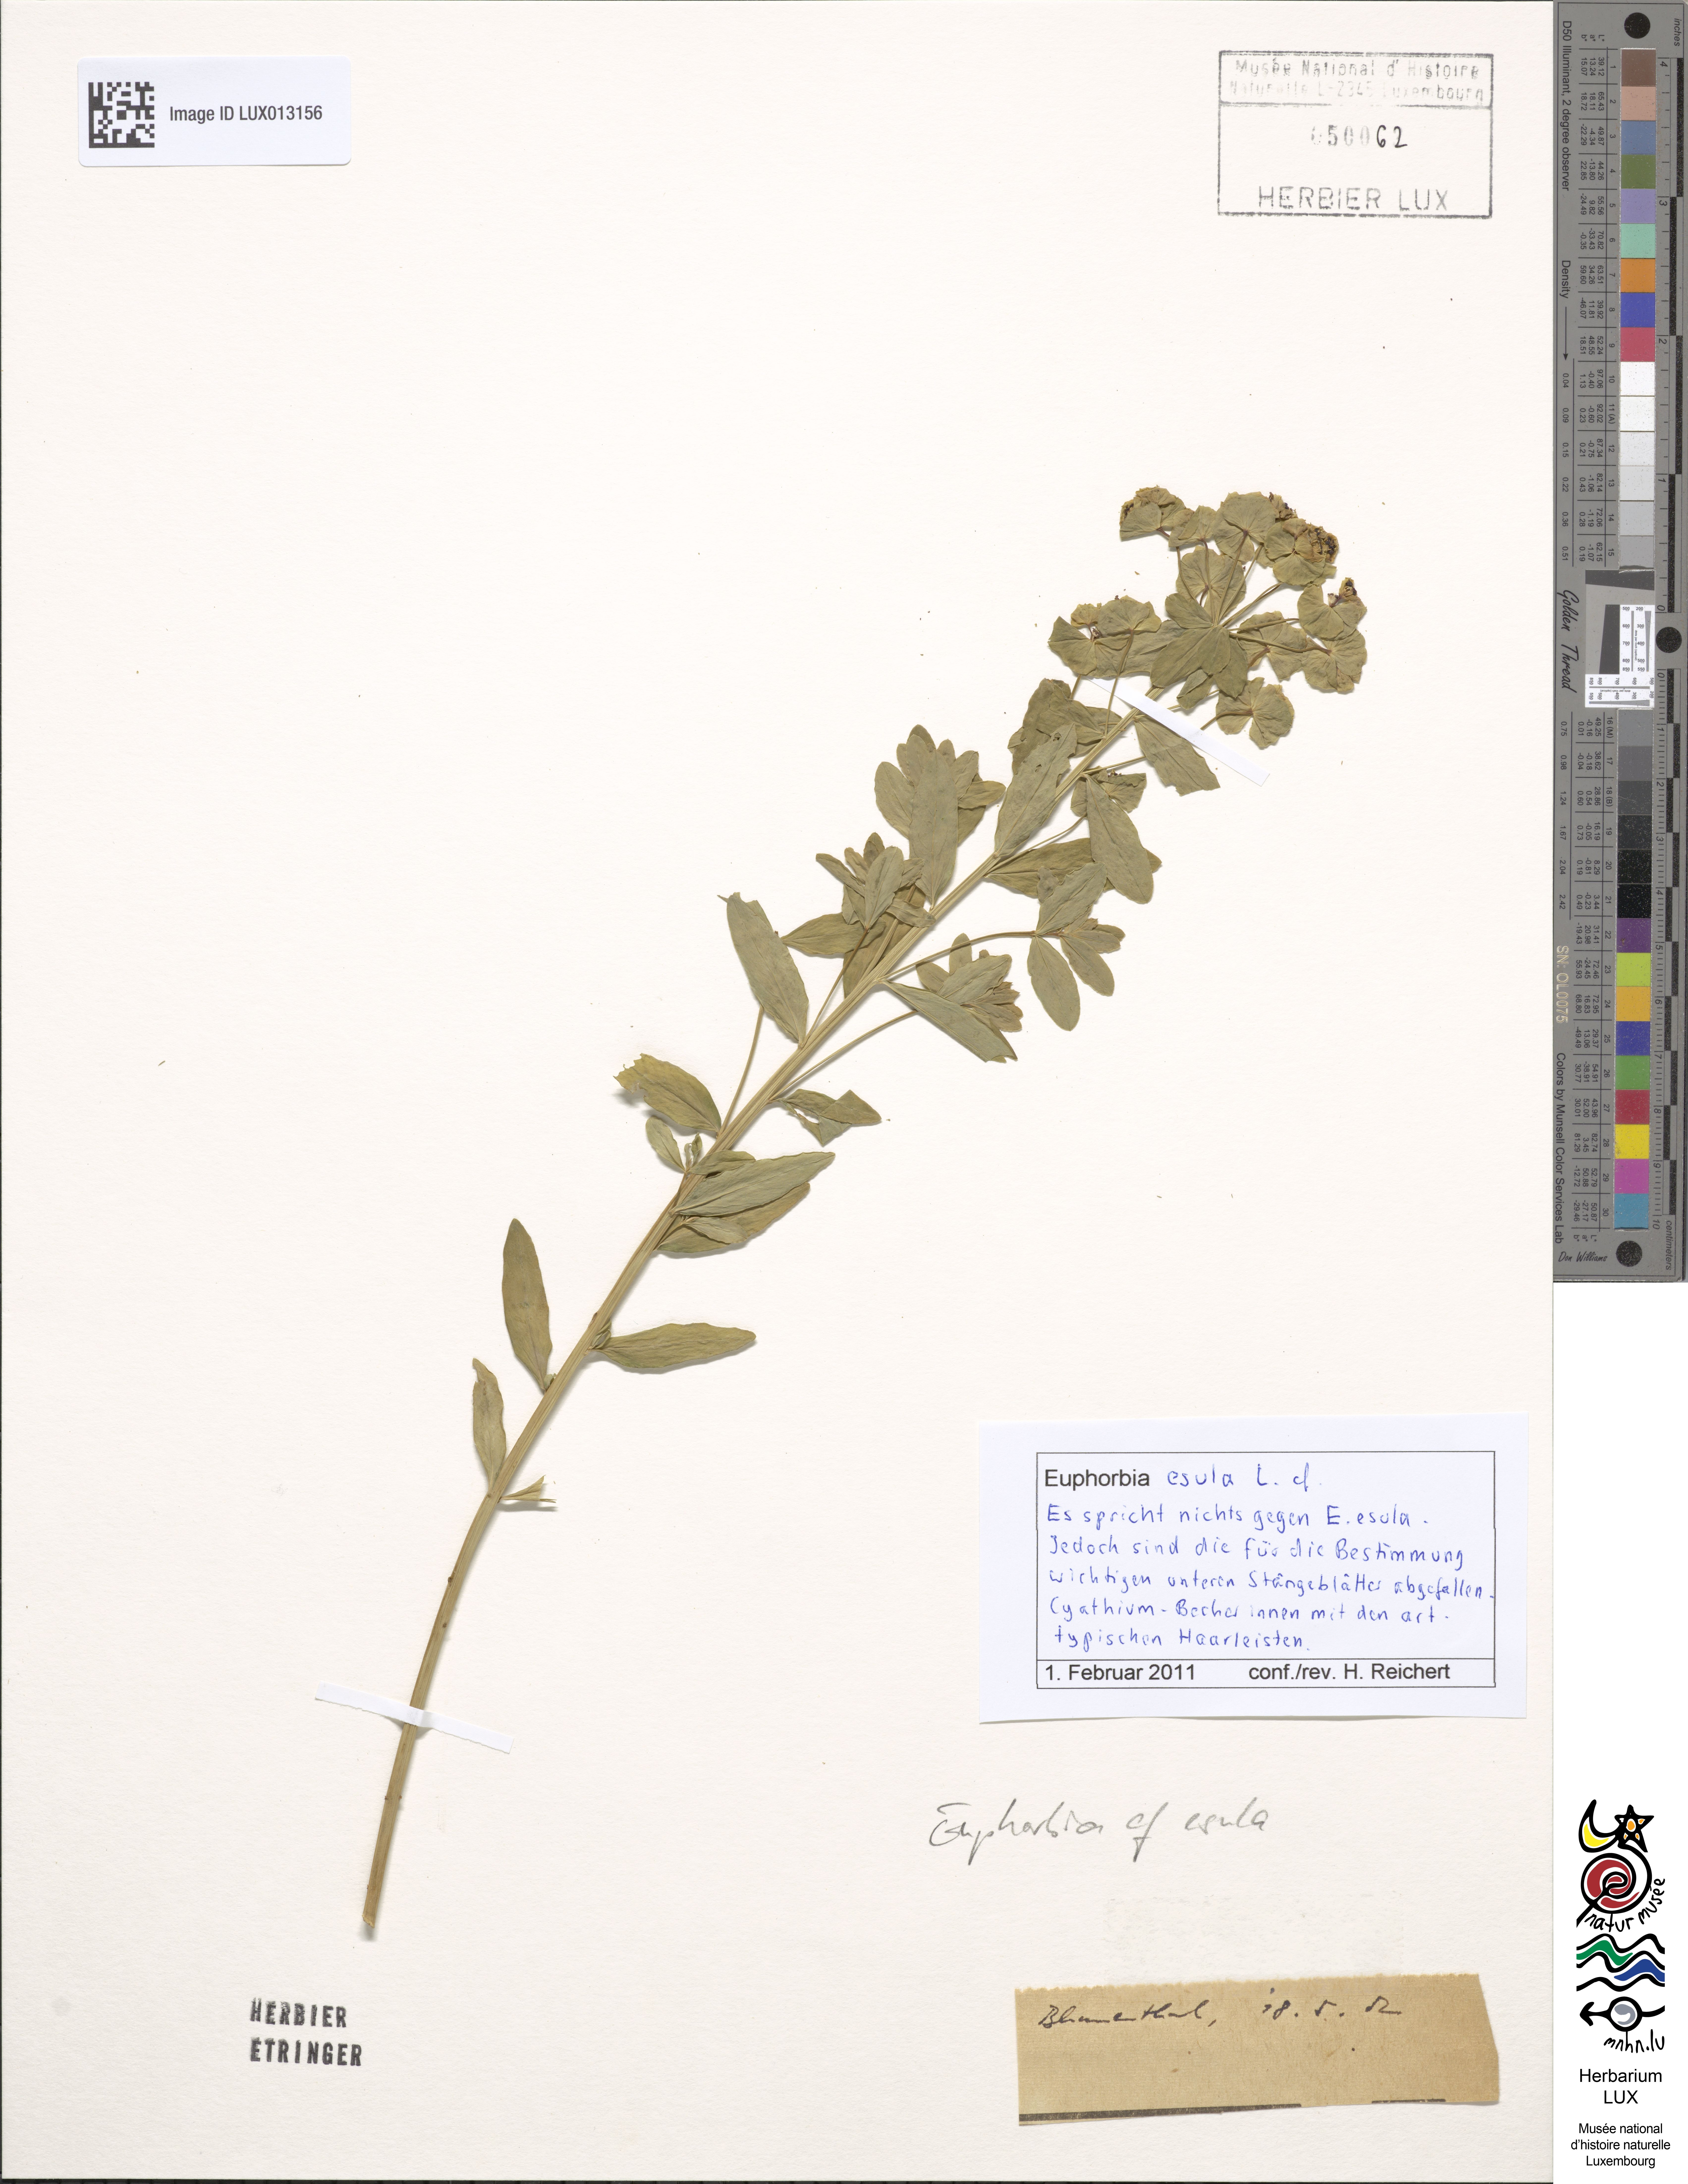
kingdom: Plantae
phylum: Tracheophyta
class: Magnoliopsida
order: Malpighiales
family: Euphorbiaceae
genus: Euphorbia
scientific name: Euphorbia esula
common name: Leafy spurge
